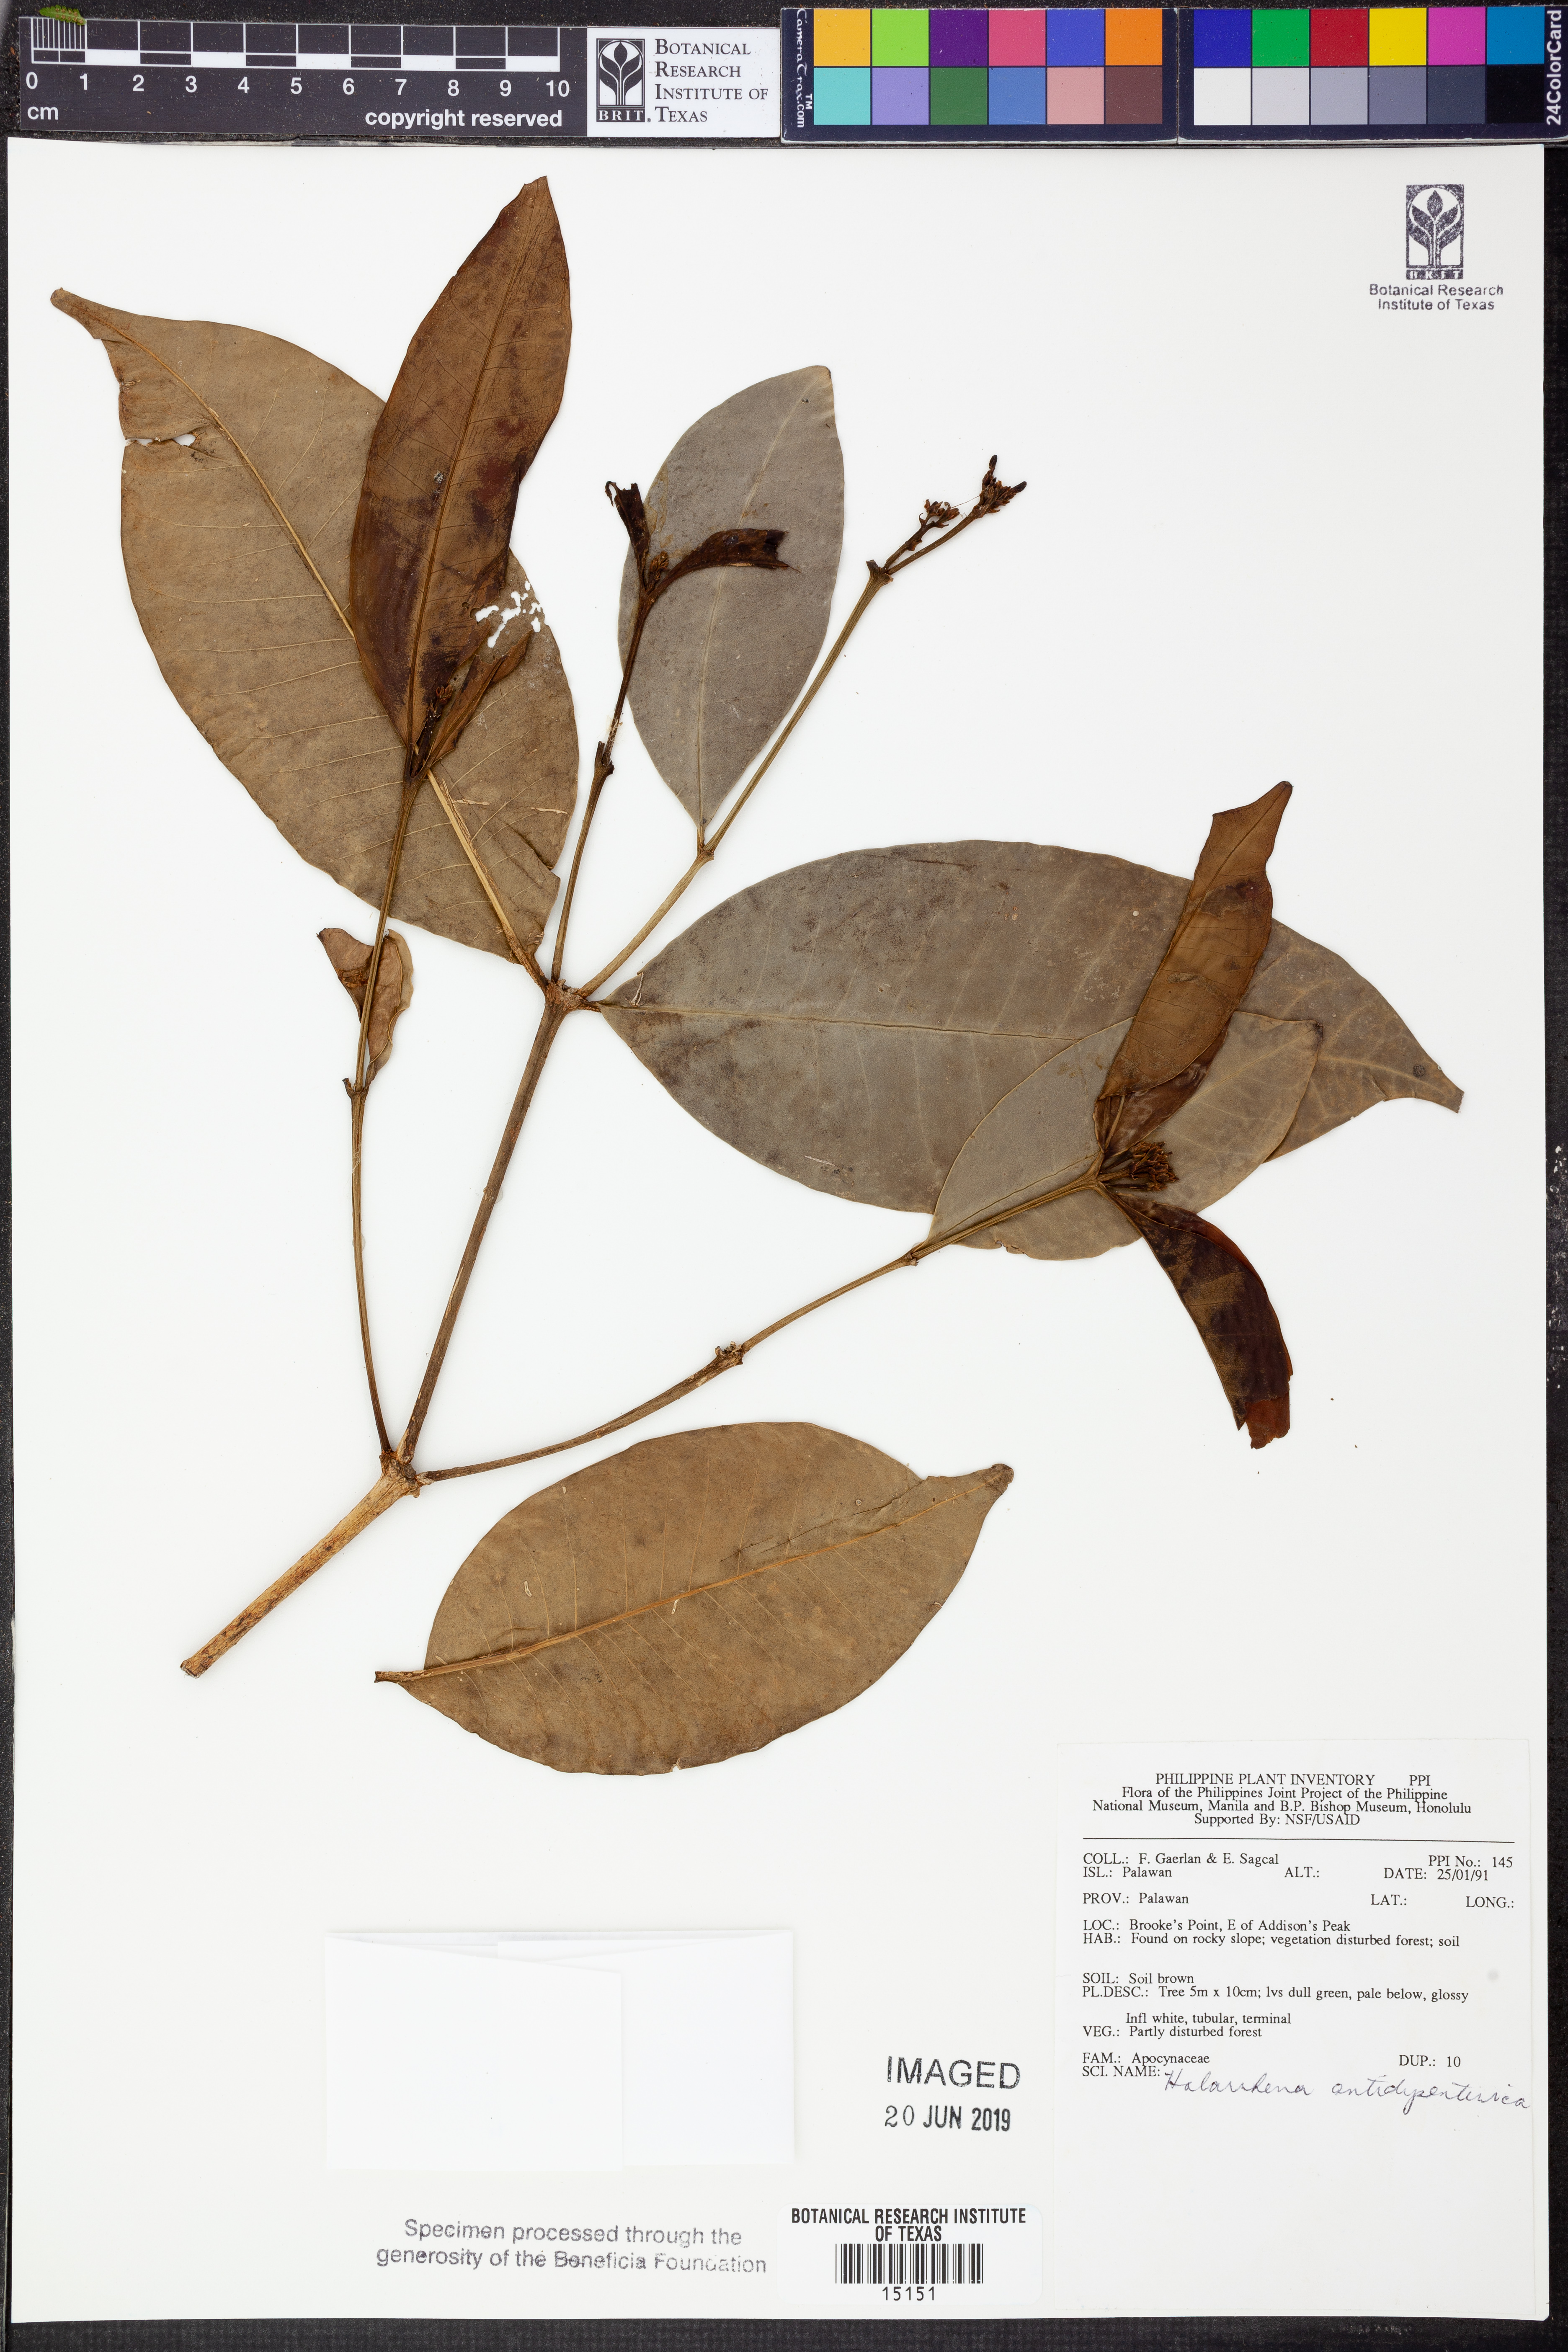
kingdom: Plantae
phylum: Tracheophyta
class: Magnoliopsida
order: Gentianales
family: Apocynaceae
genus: Holarrhena
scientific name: Holarrhena pubescens
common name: Bitter oleander
